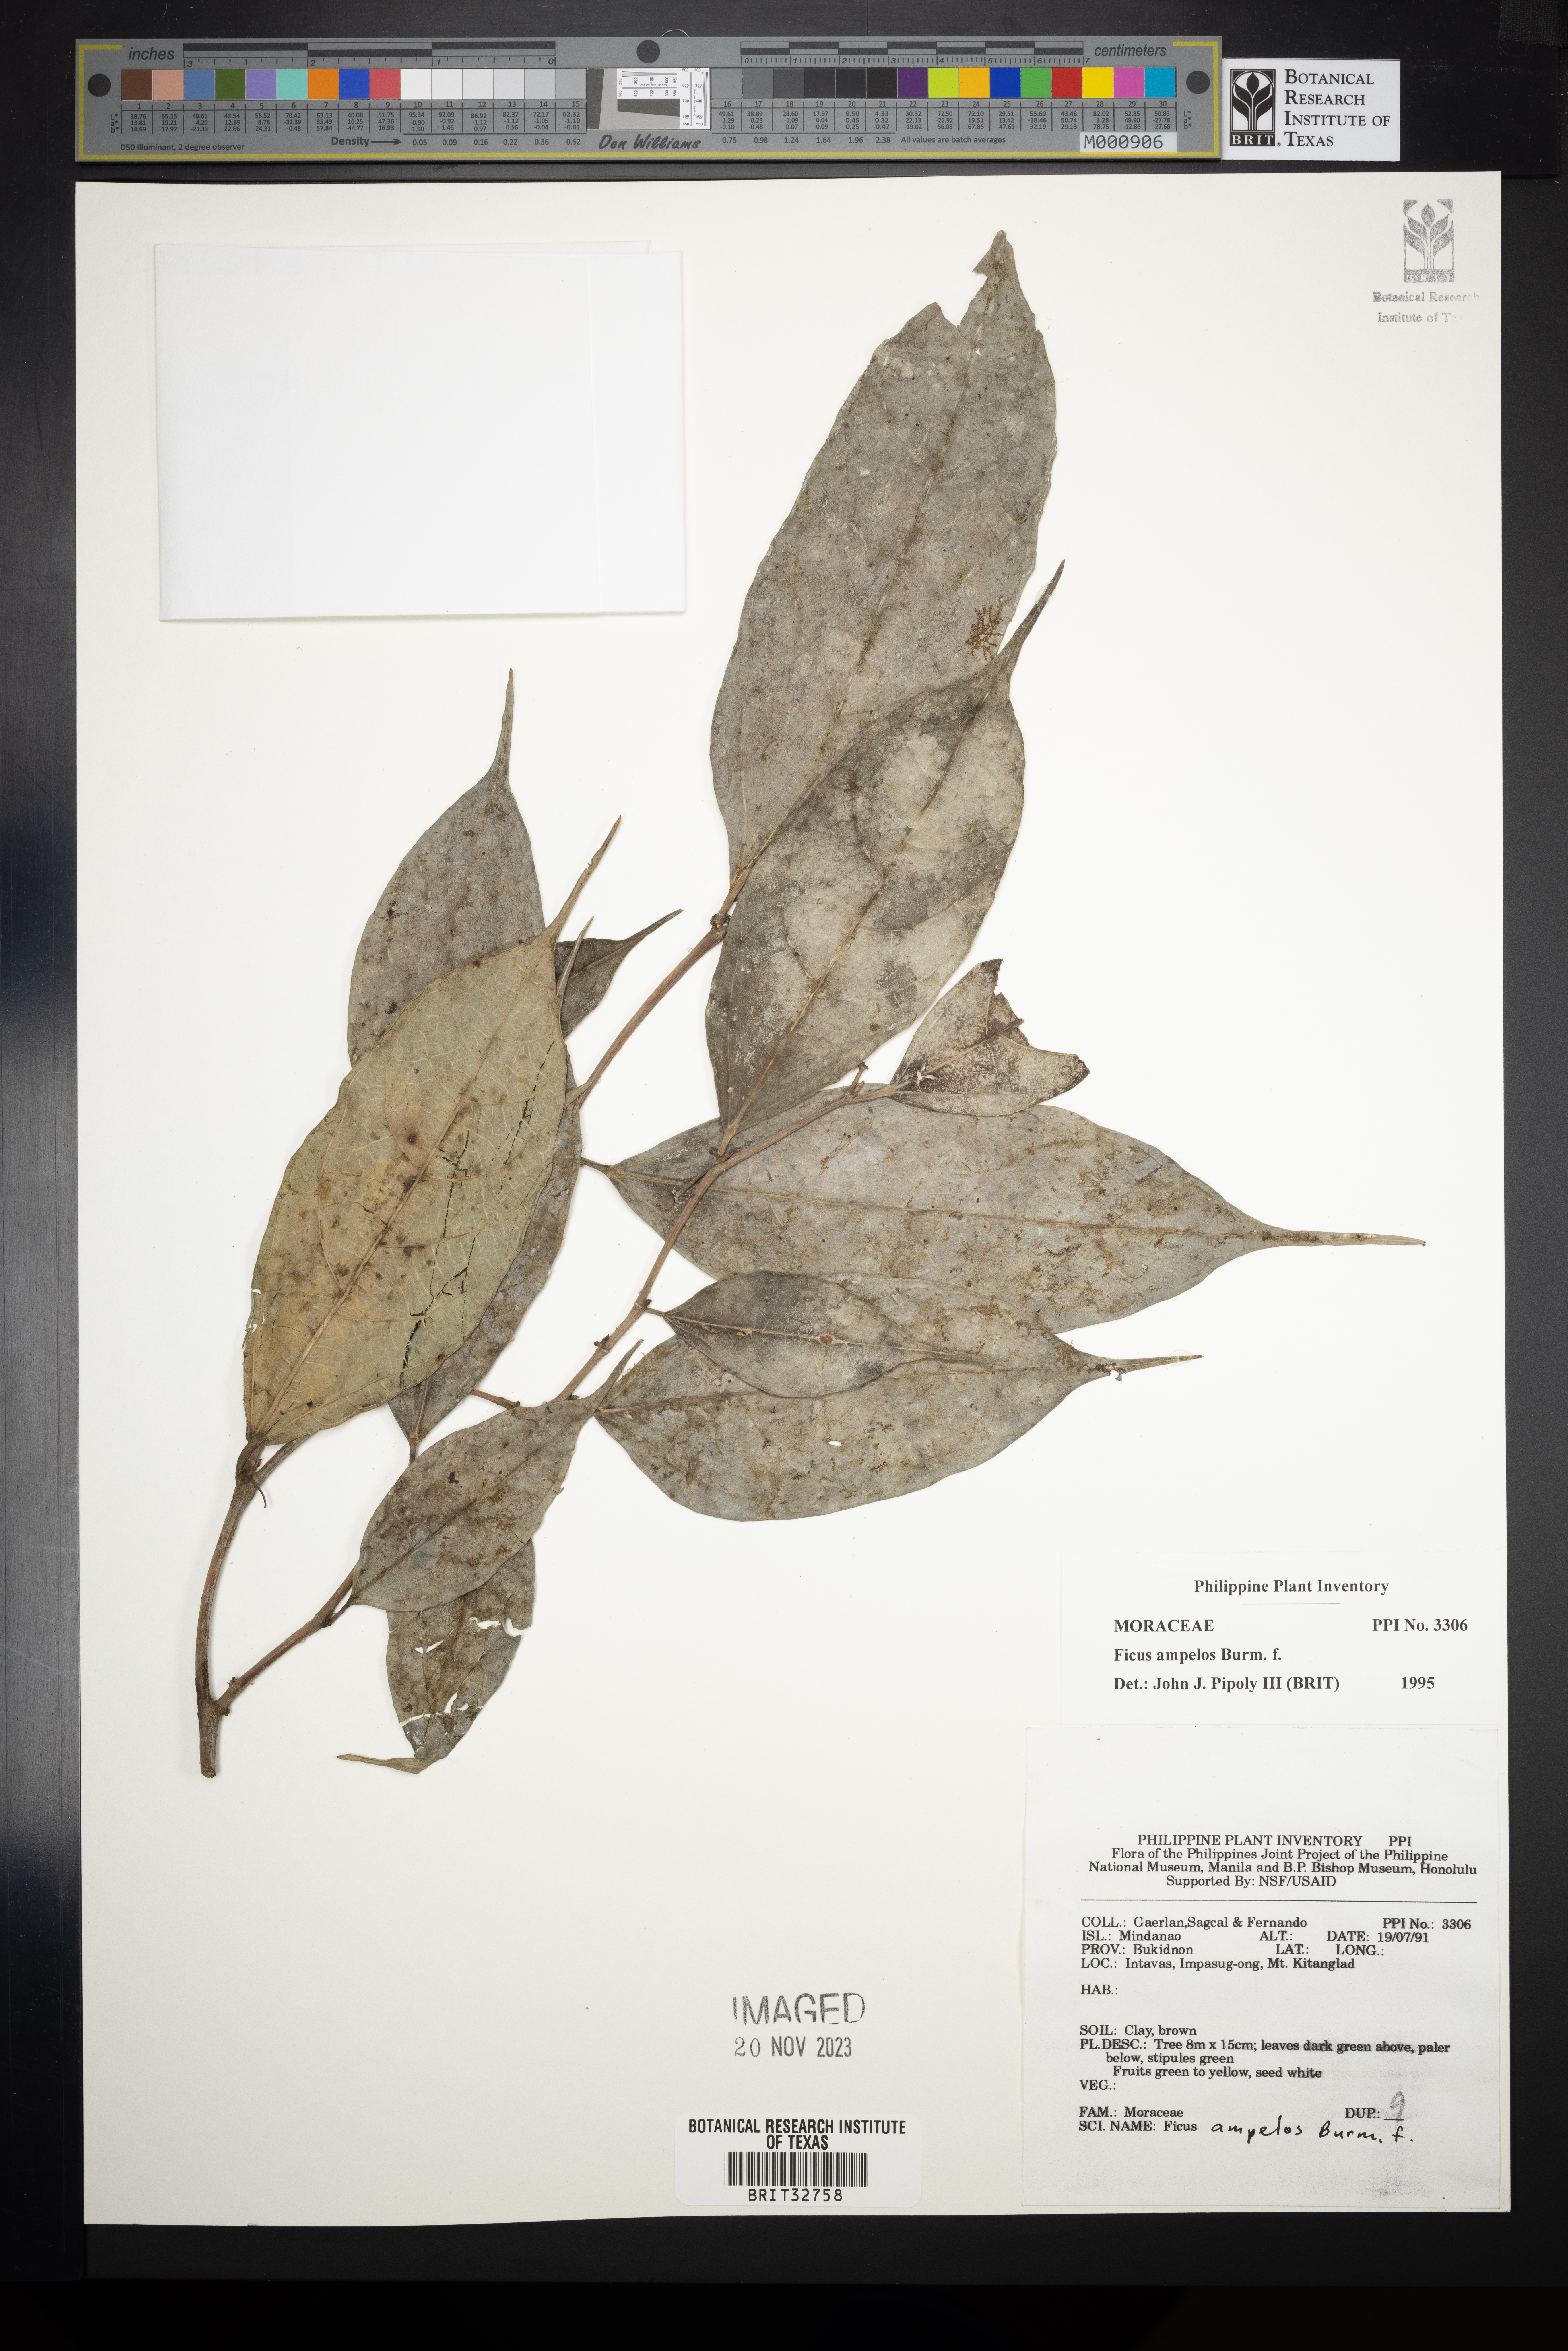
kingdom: Plantae
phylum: Tracheophyta
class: Magnoliopsida
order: Rosales
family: Moraceae
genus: Ficus
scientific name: Ficus ampelos
